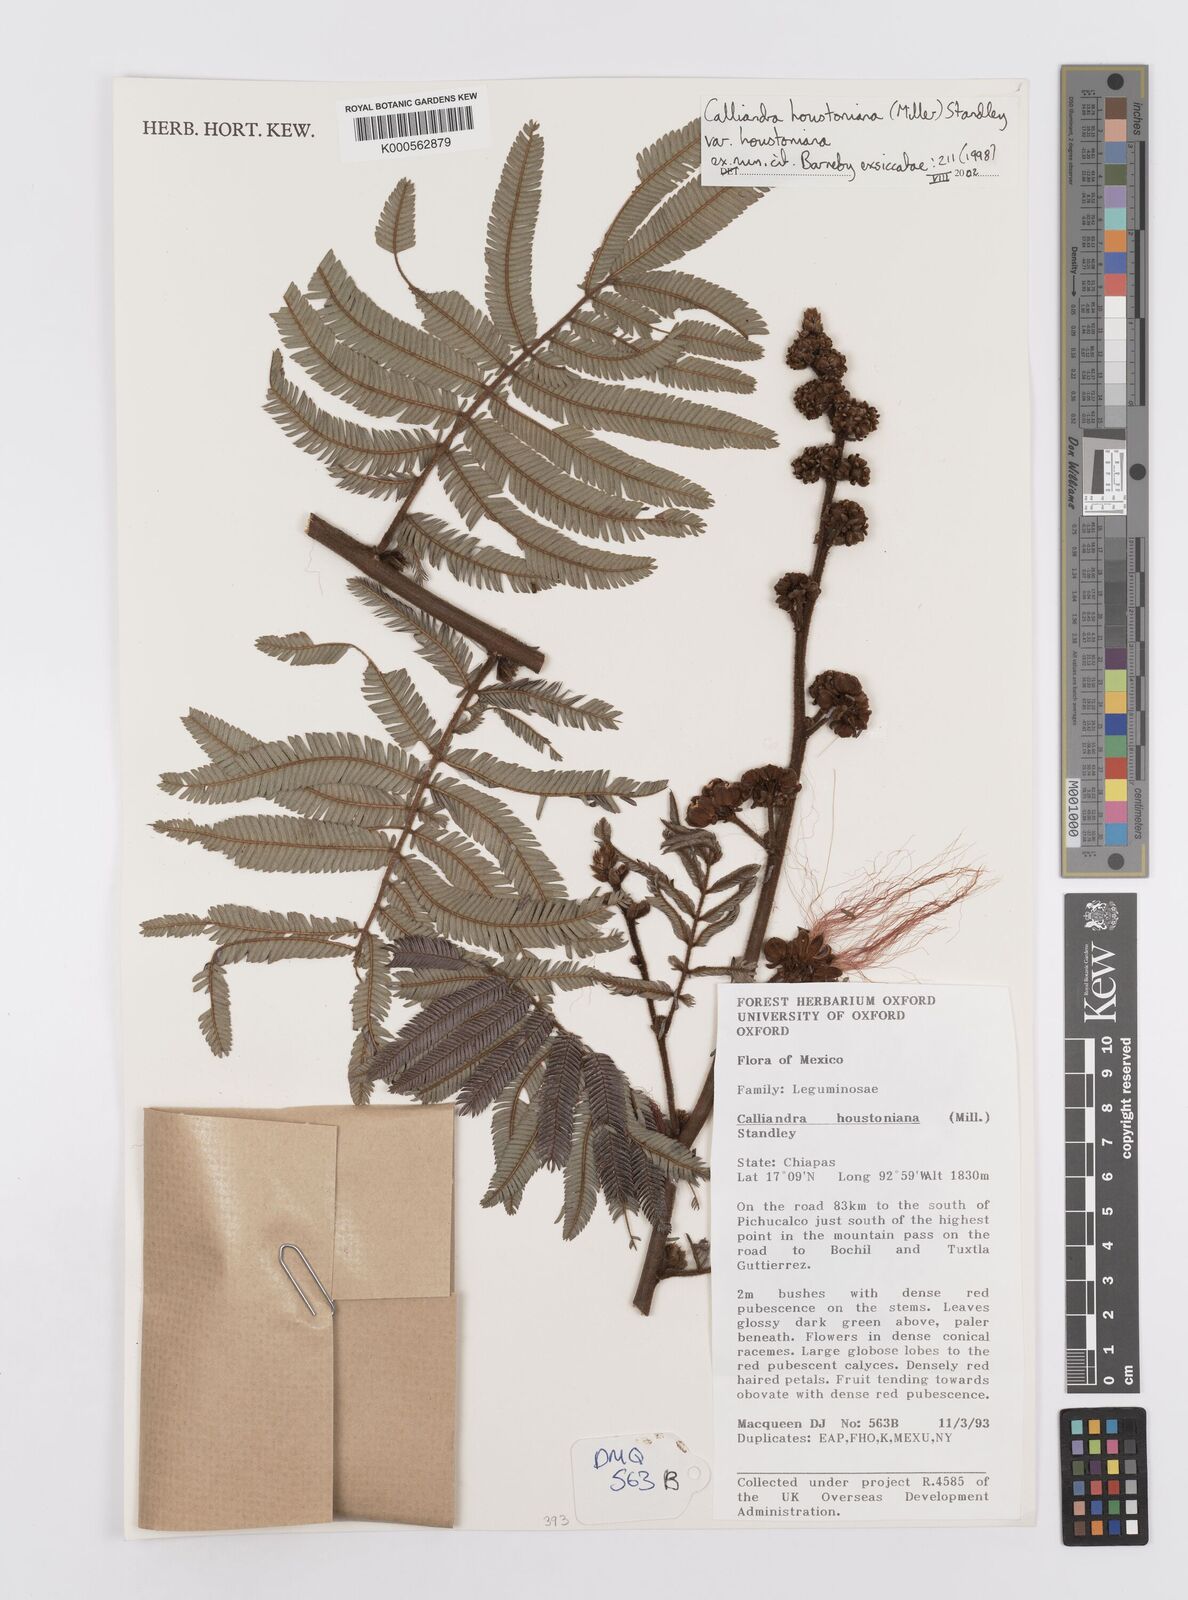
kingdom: Plantae
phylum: Tracheophyta
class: Magnoliopsida
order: Fabales
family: Fabaceae
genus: Calliandra
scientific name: Calliandra houstoniana
